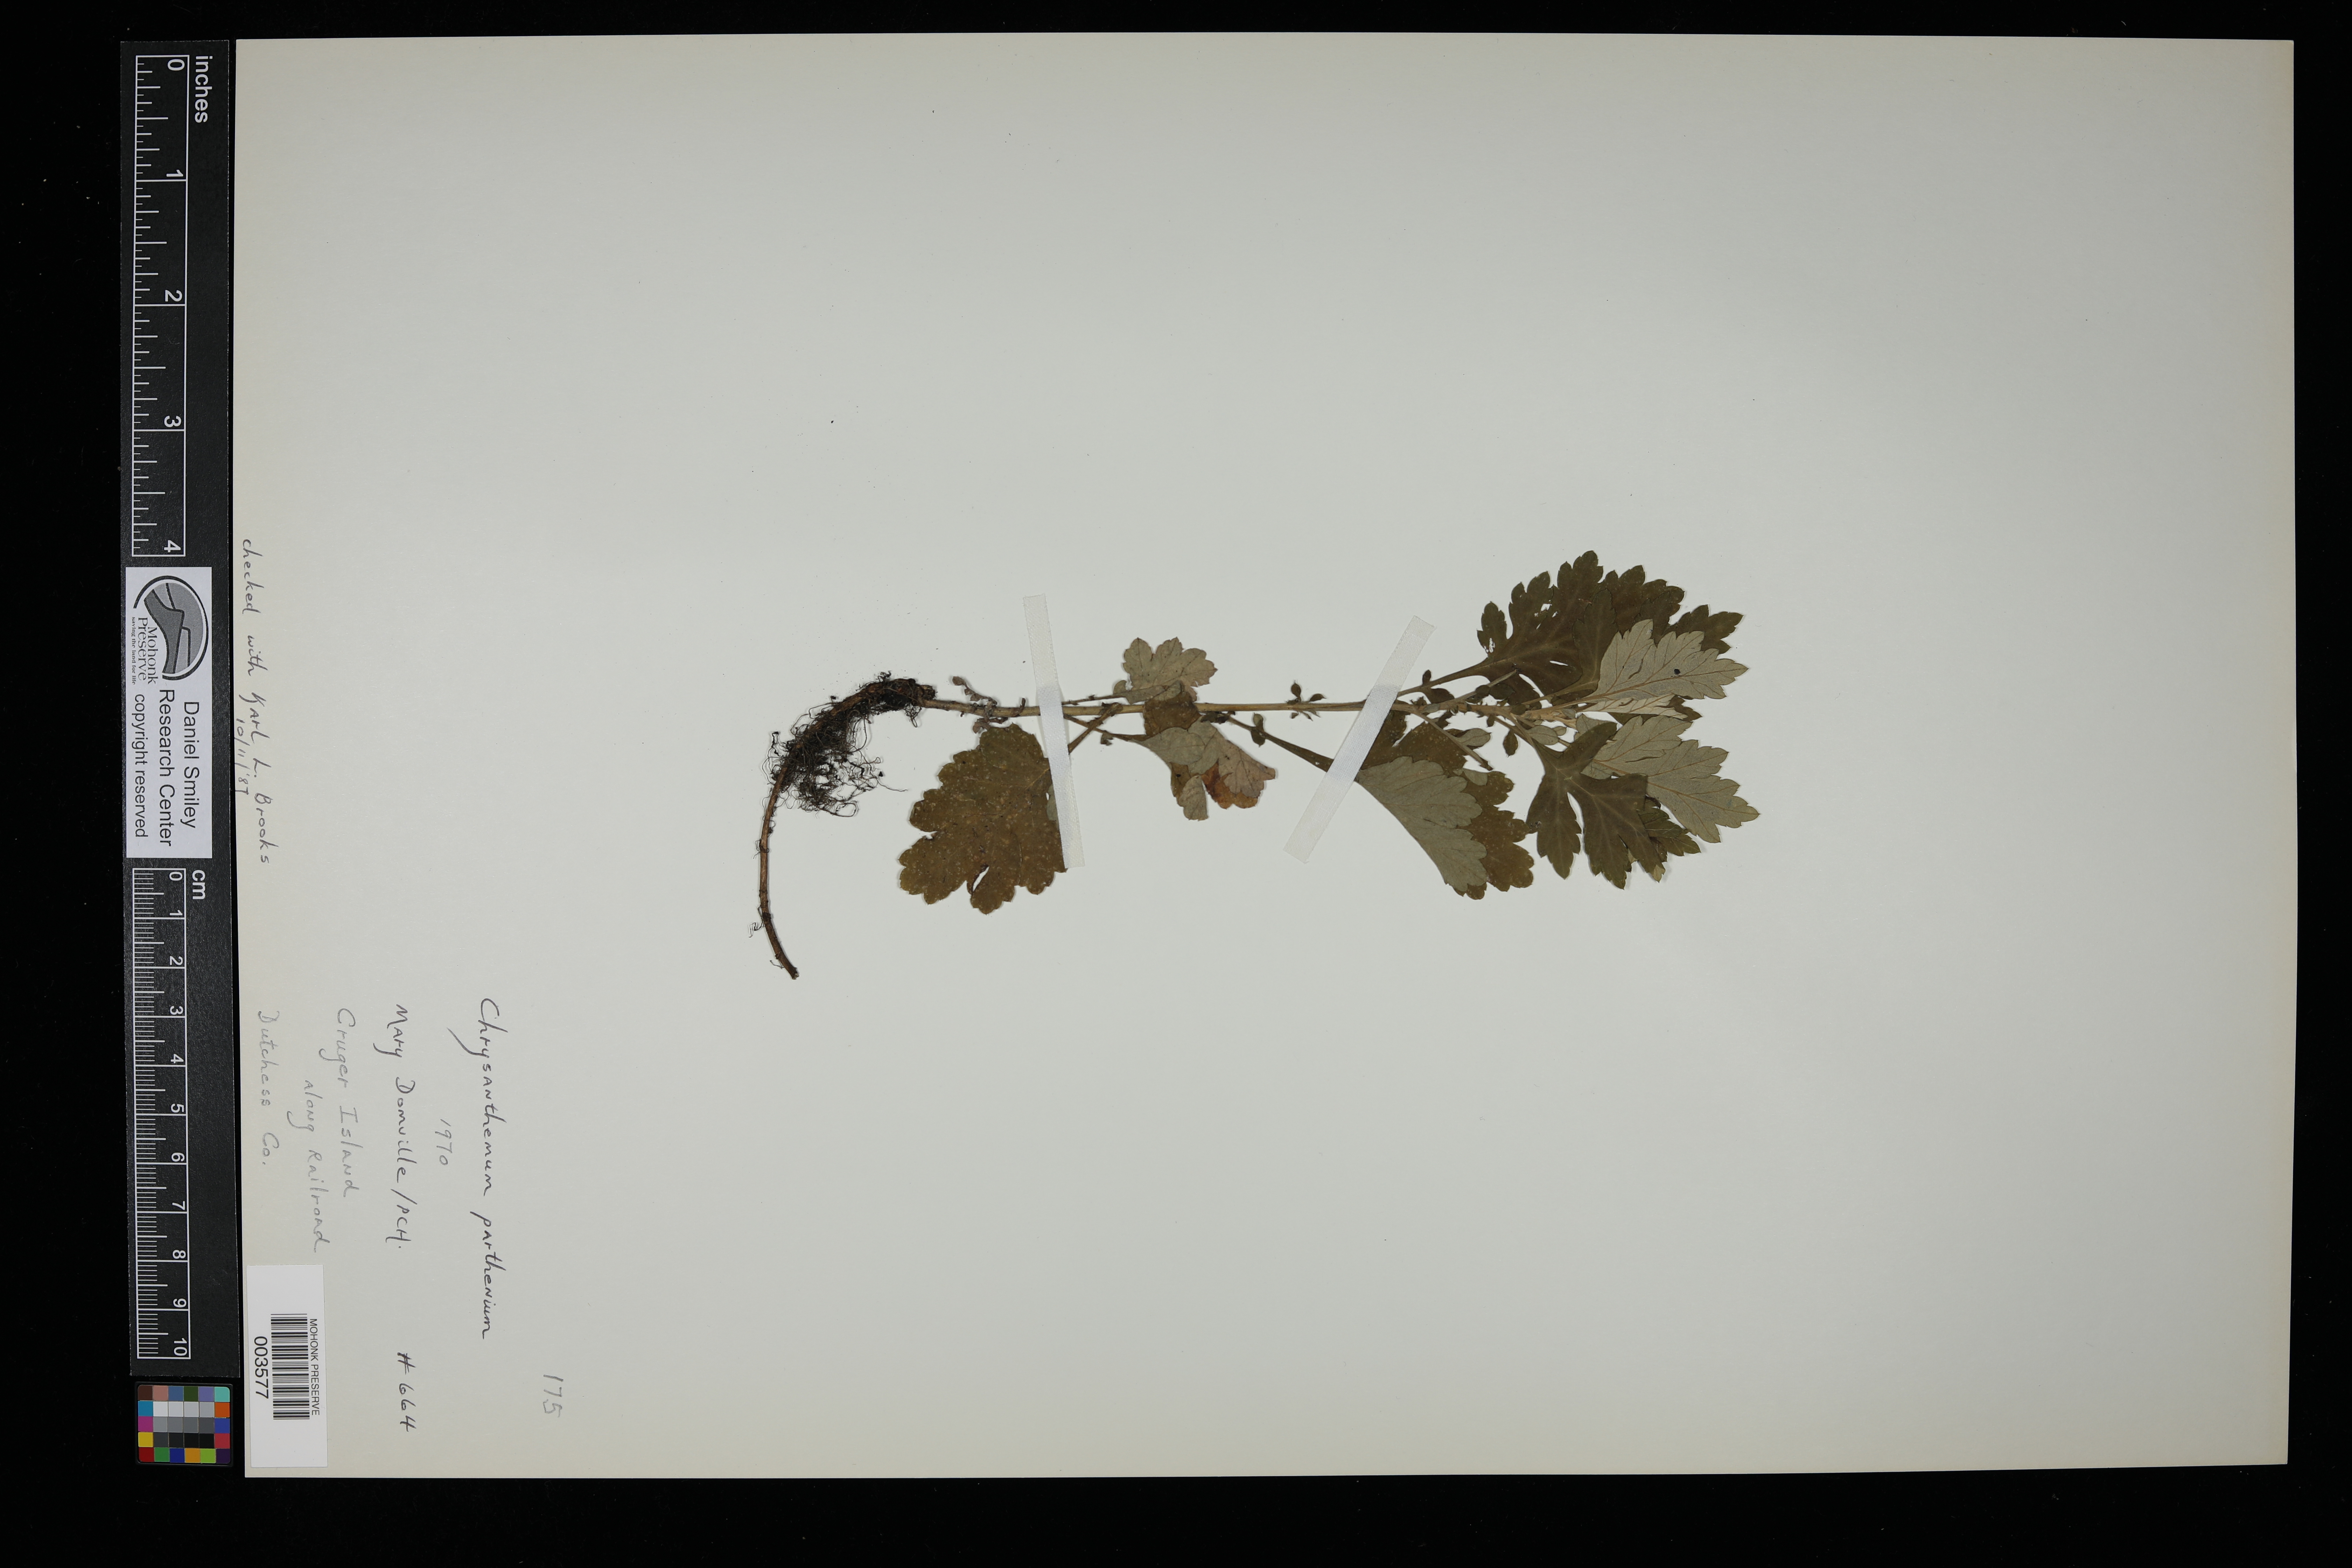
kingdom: Plantae
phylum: Tracheophyta
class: Magnoliopsida
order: Asterales
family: Asteraceae
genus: Tanacetum
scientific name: Tanacetum parthenium
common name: Feverfew
